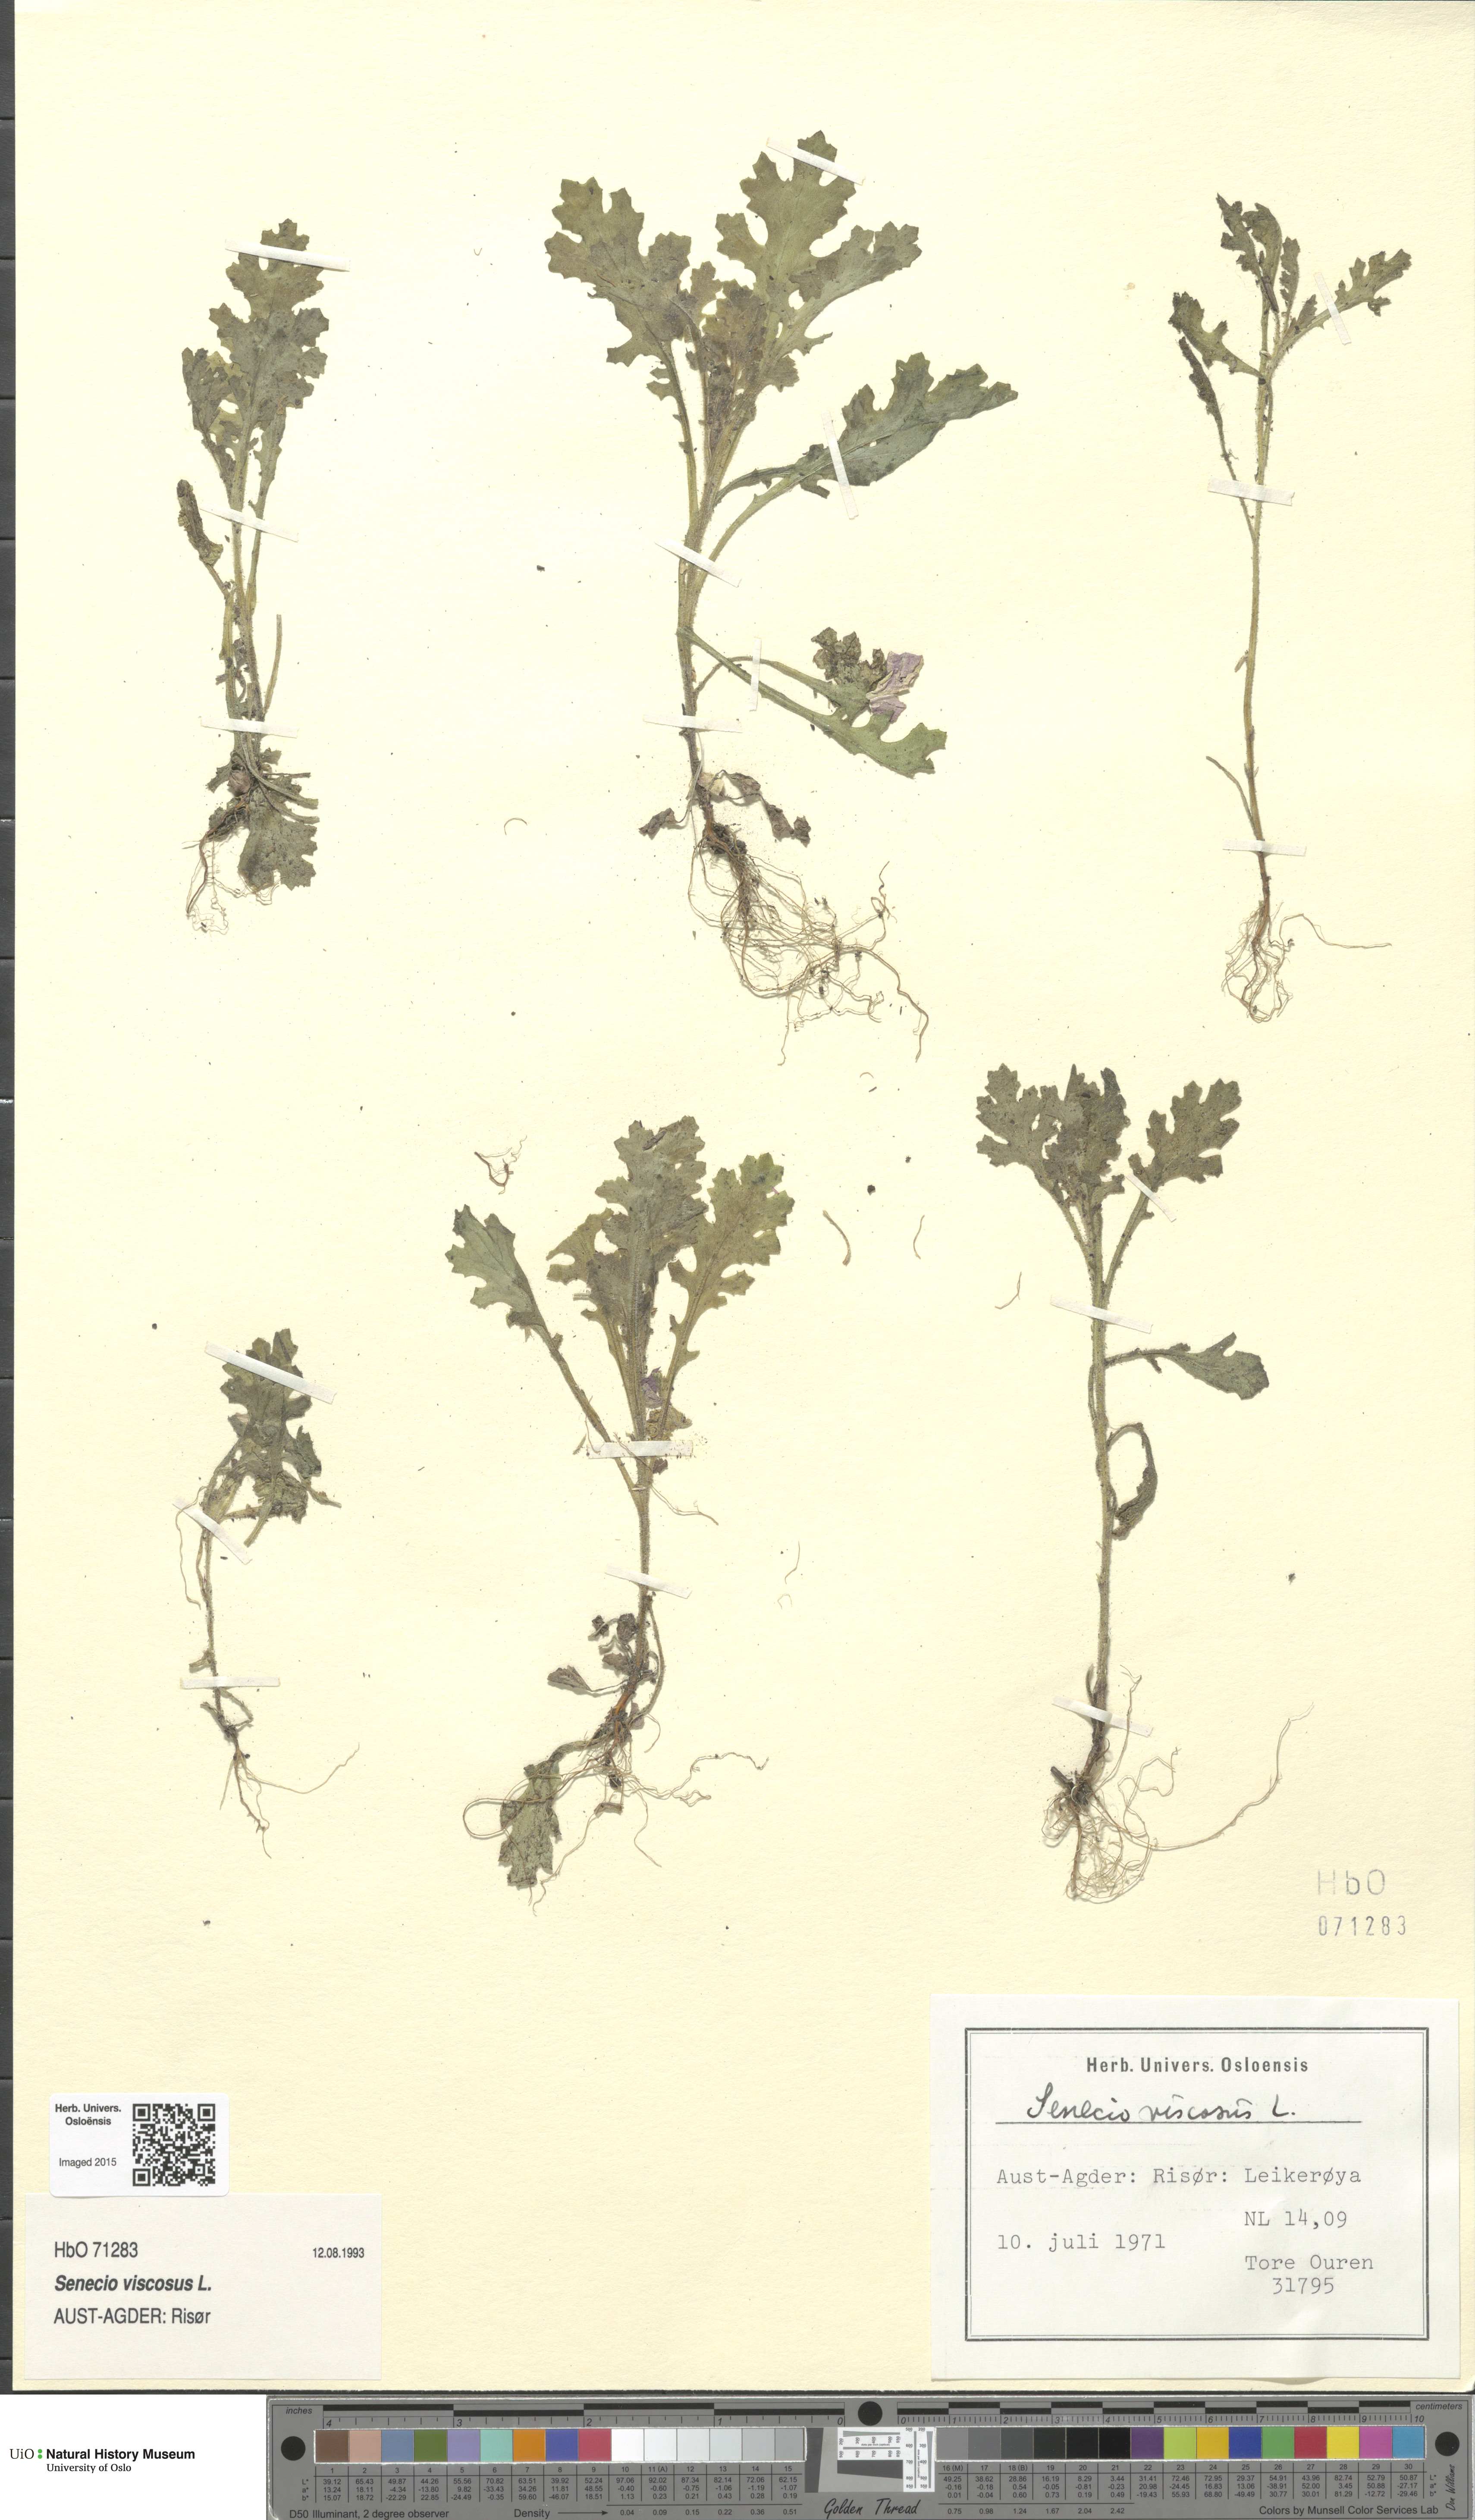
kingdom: Plantae
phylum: Tracheophyta
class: Magnoliopsida
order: Asterales
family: Asteraceae
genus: Senecio
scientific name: Senecio viscosus
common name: Sticky groundsel
